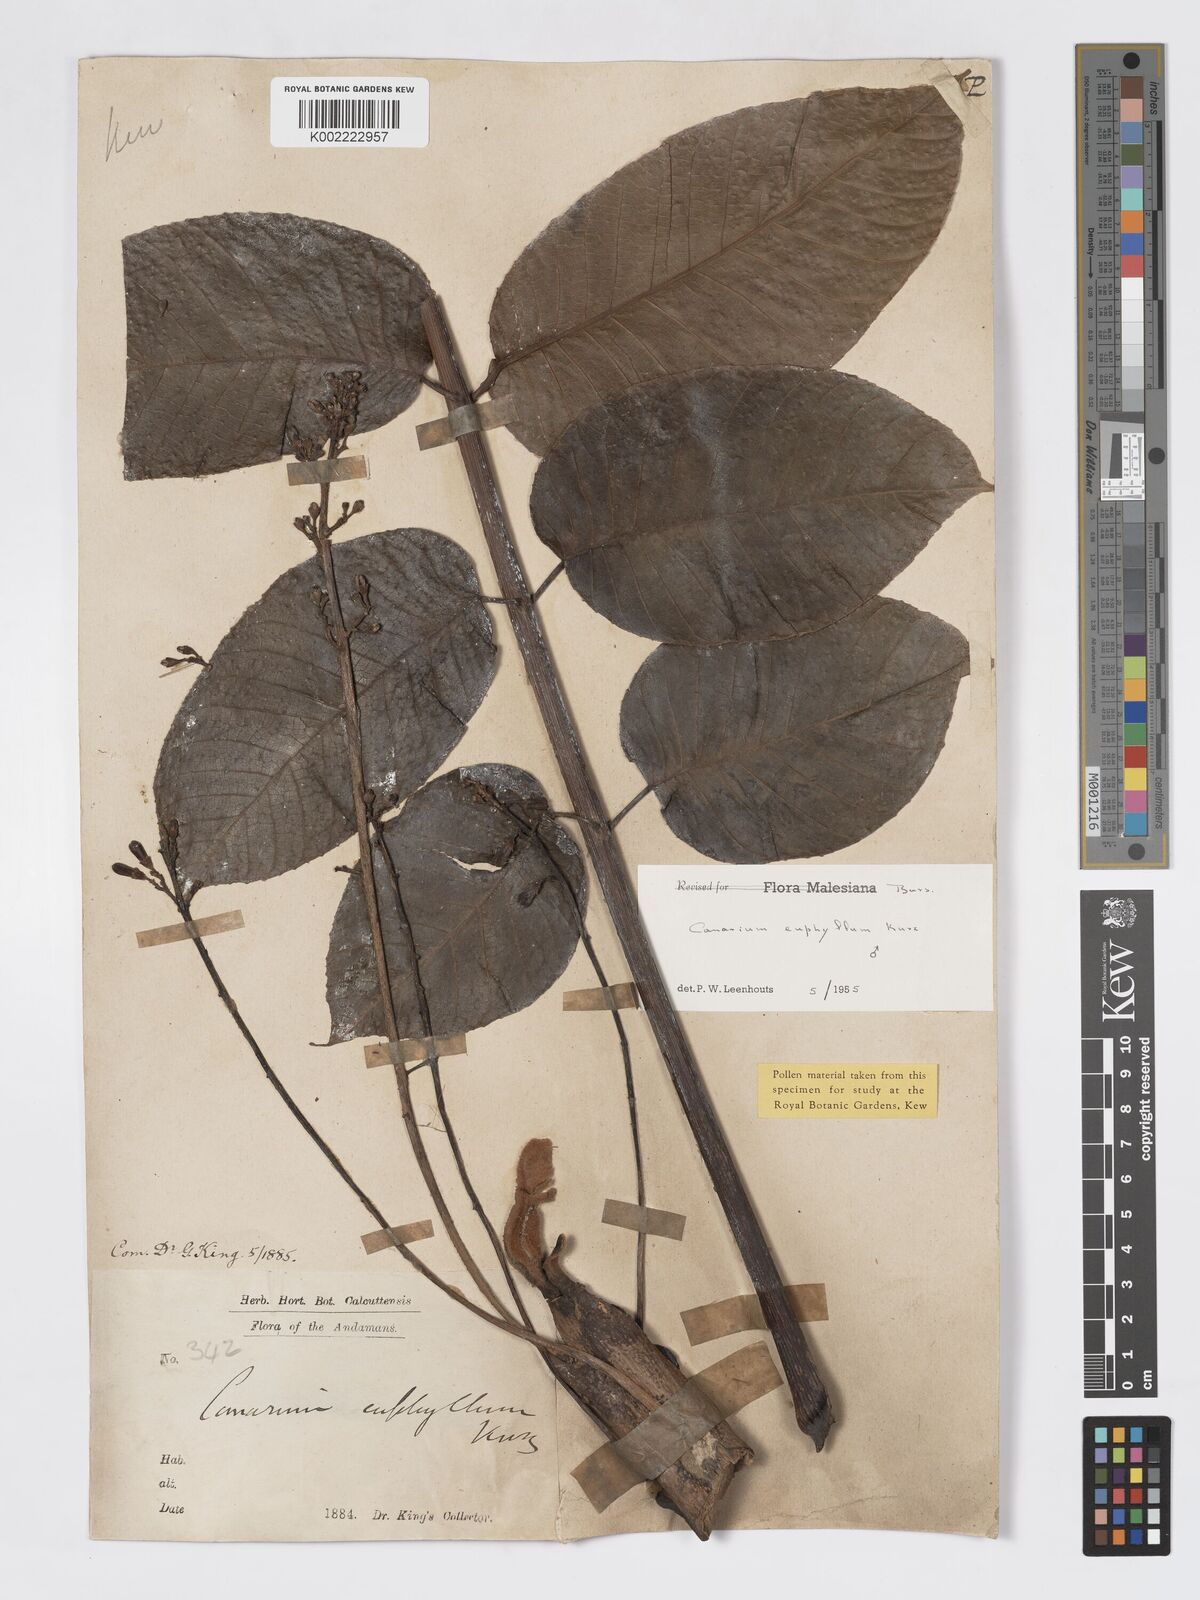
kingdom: Plantae
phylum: Tracheophyta
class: Magnoliopsida
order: Sapindales
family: Burseraceae
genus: Canarium
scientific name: Canarium euphyllum
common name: White dhup
